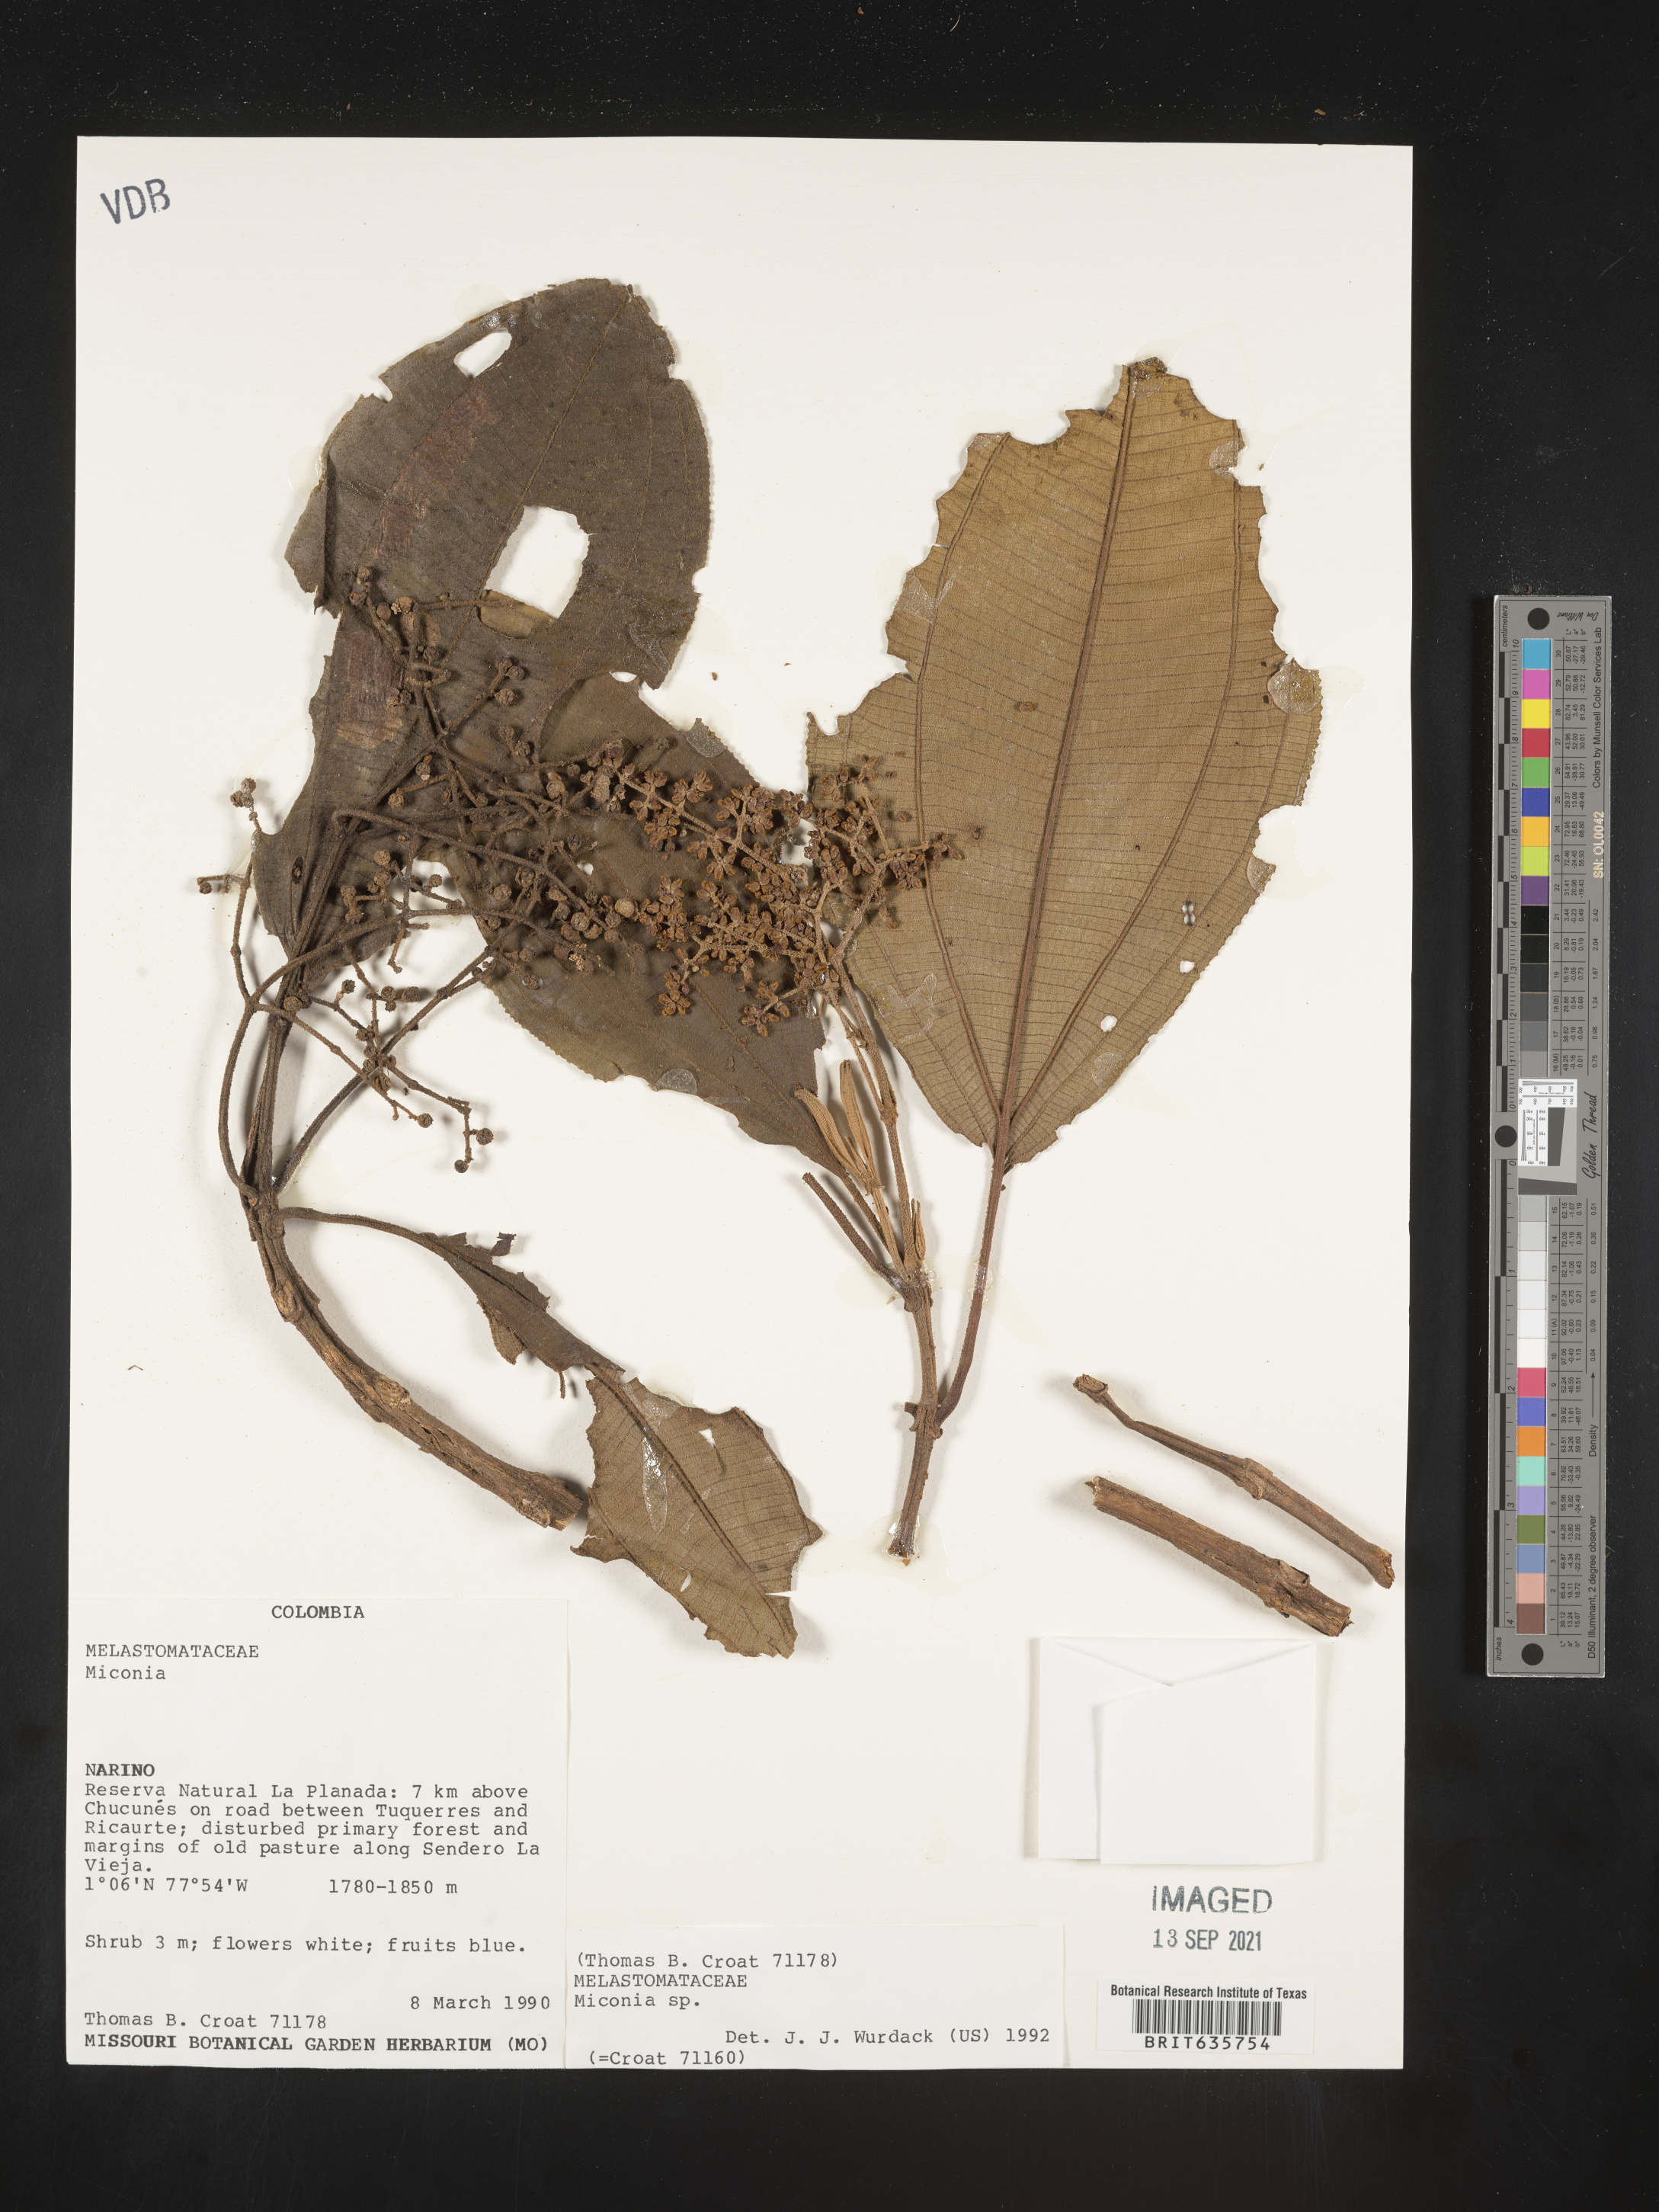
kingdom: Plantae
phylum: Tracheophyta
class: Magnoliopsida
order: Myrtales
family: Melastomataceae
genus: Miconia
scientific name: Miconia
